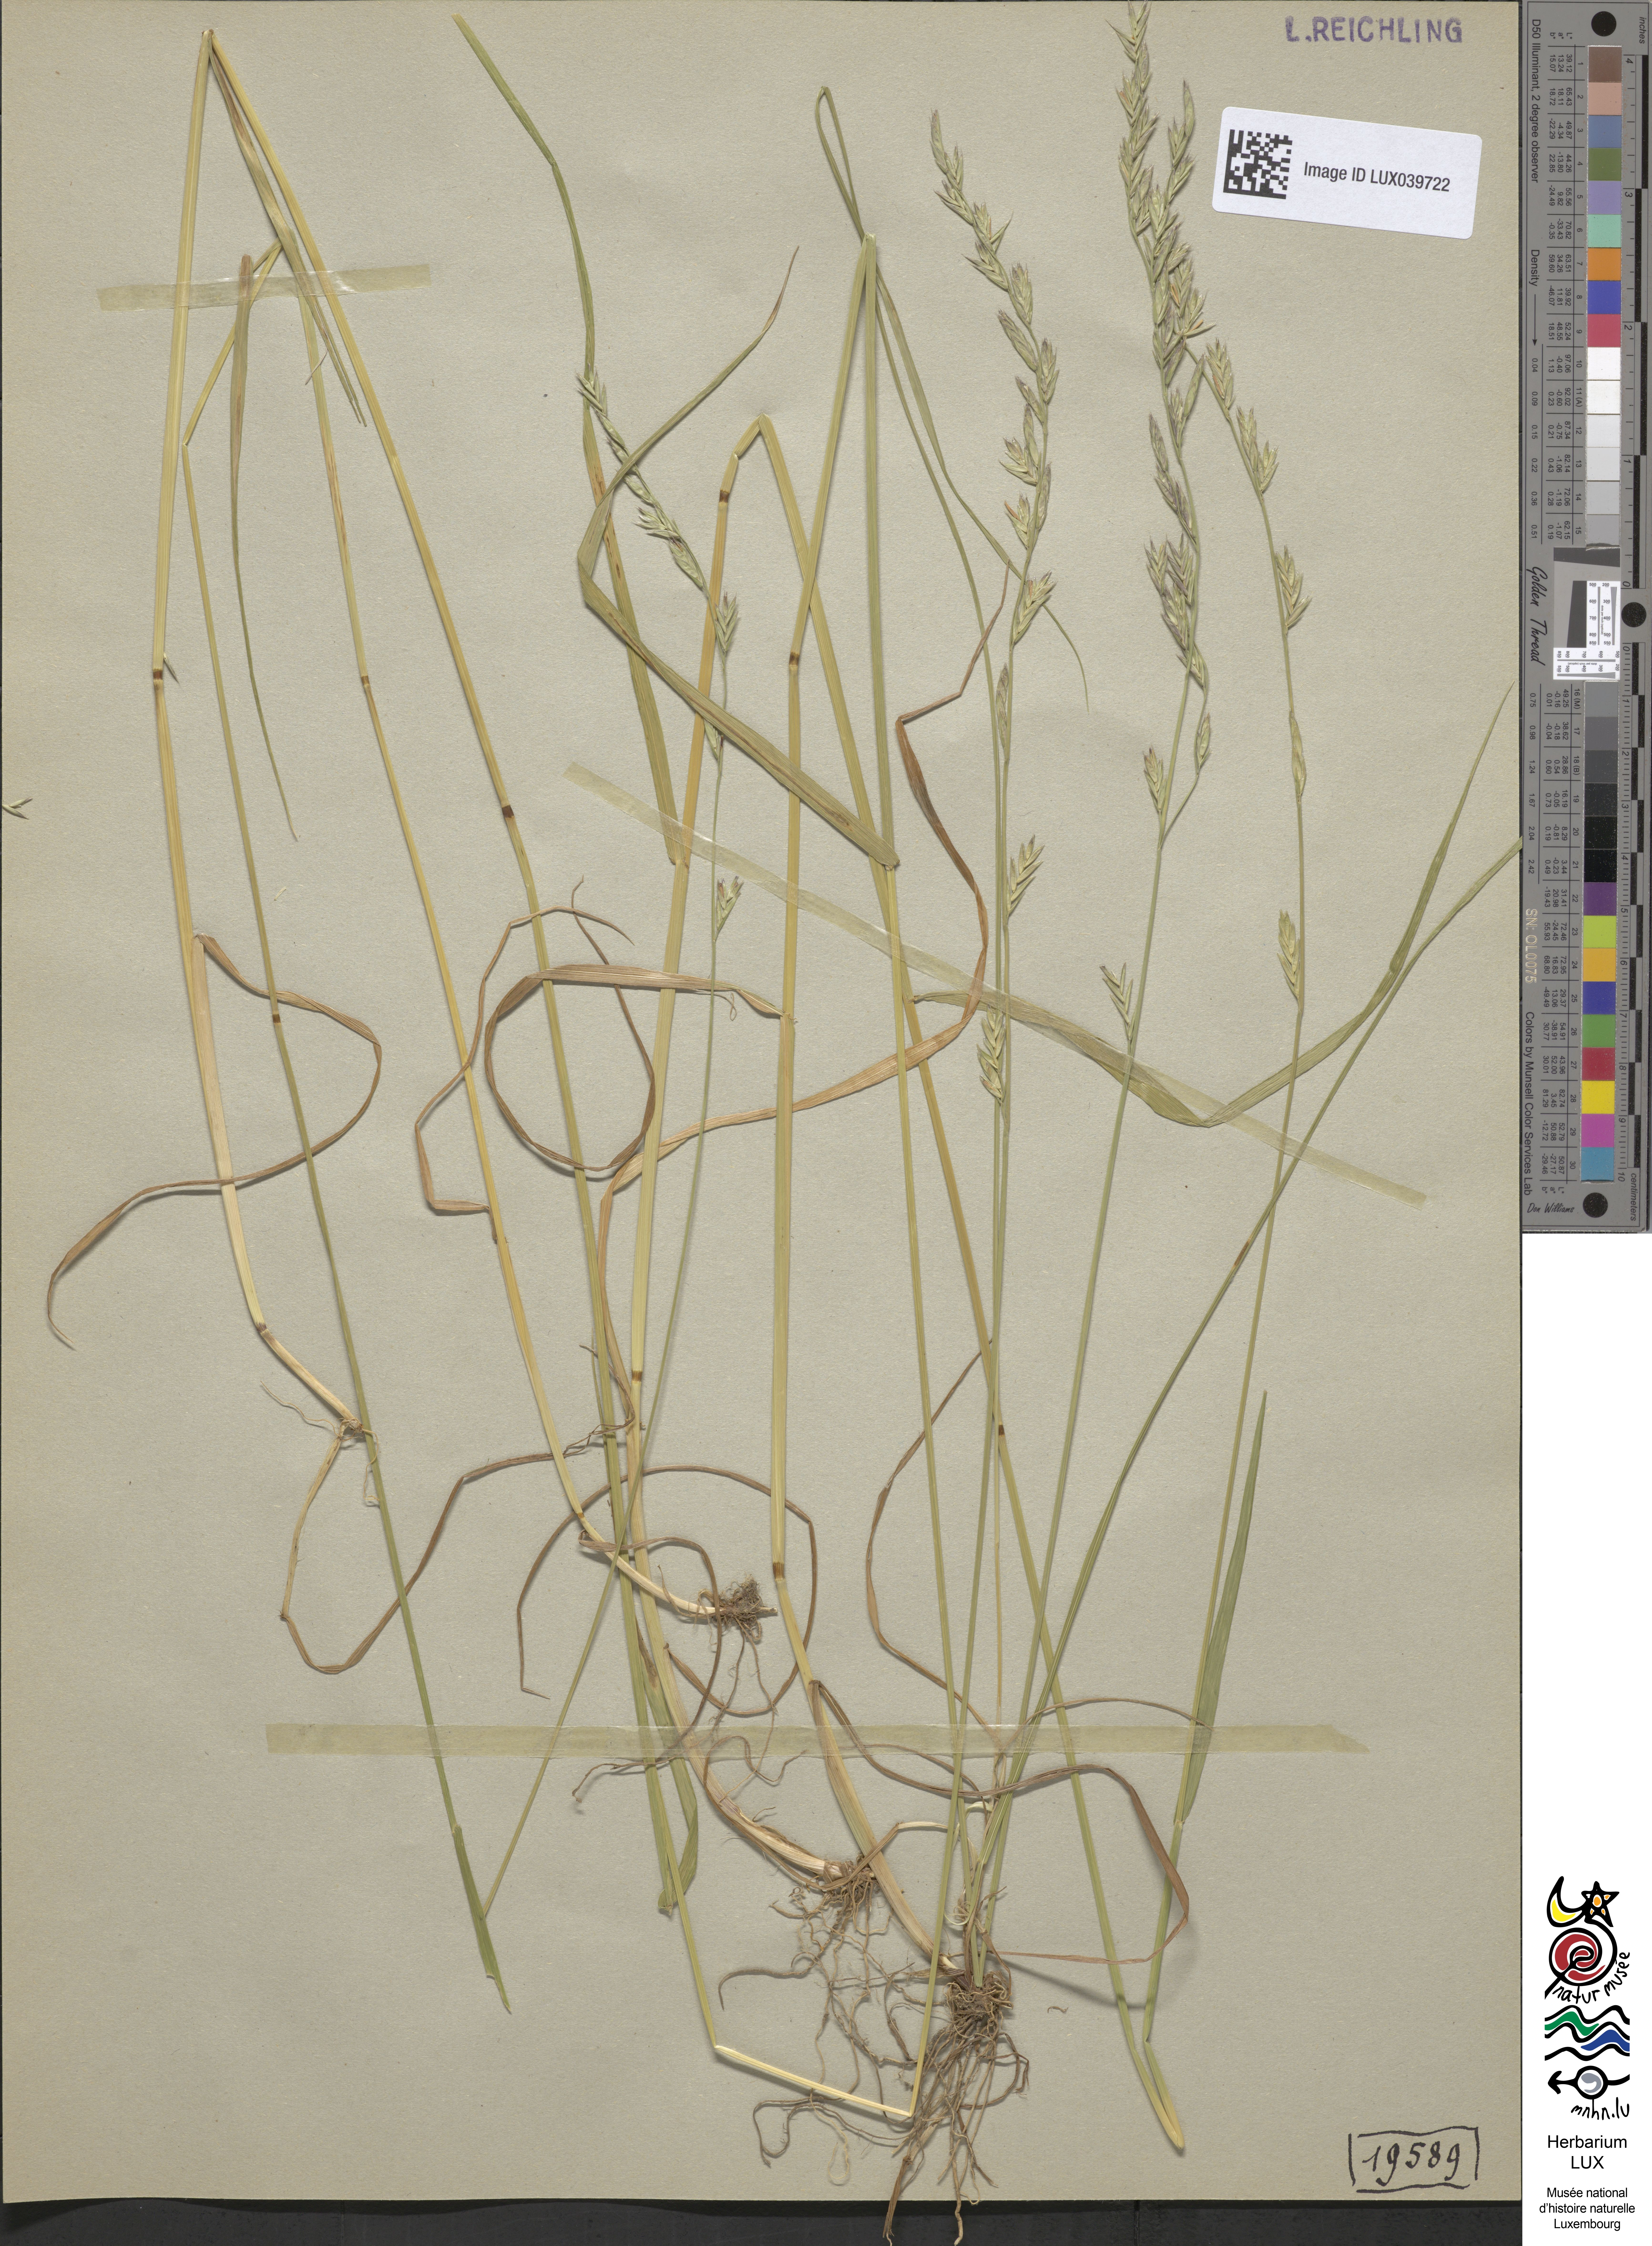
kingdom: Plantae
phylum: Tracheophyta
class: Liliopsida
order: Poales
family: Poaceae
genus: Lolium
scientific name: Lolium pratense
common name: Dover grass
